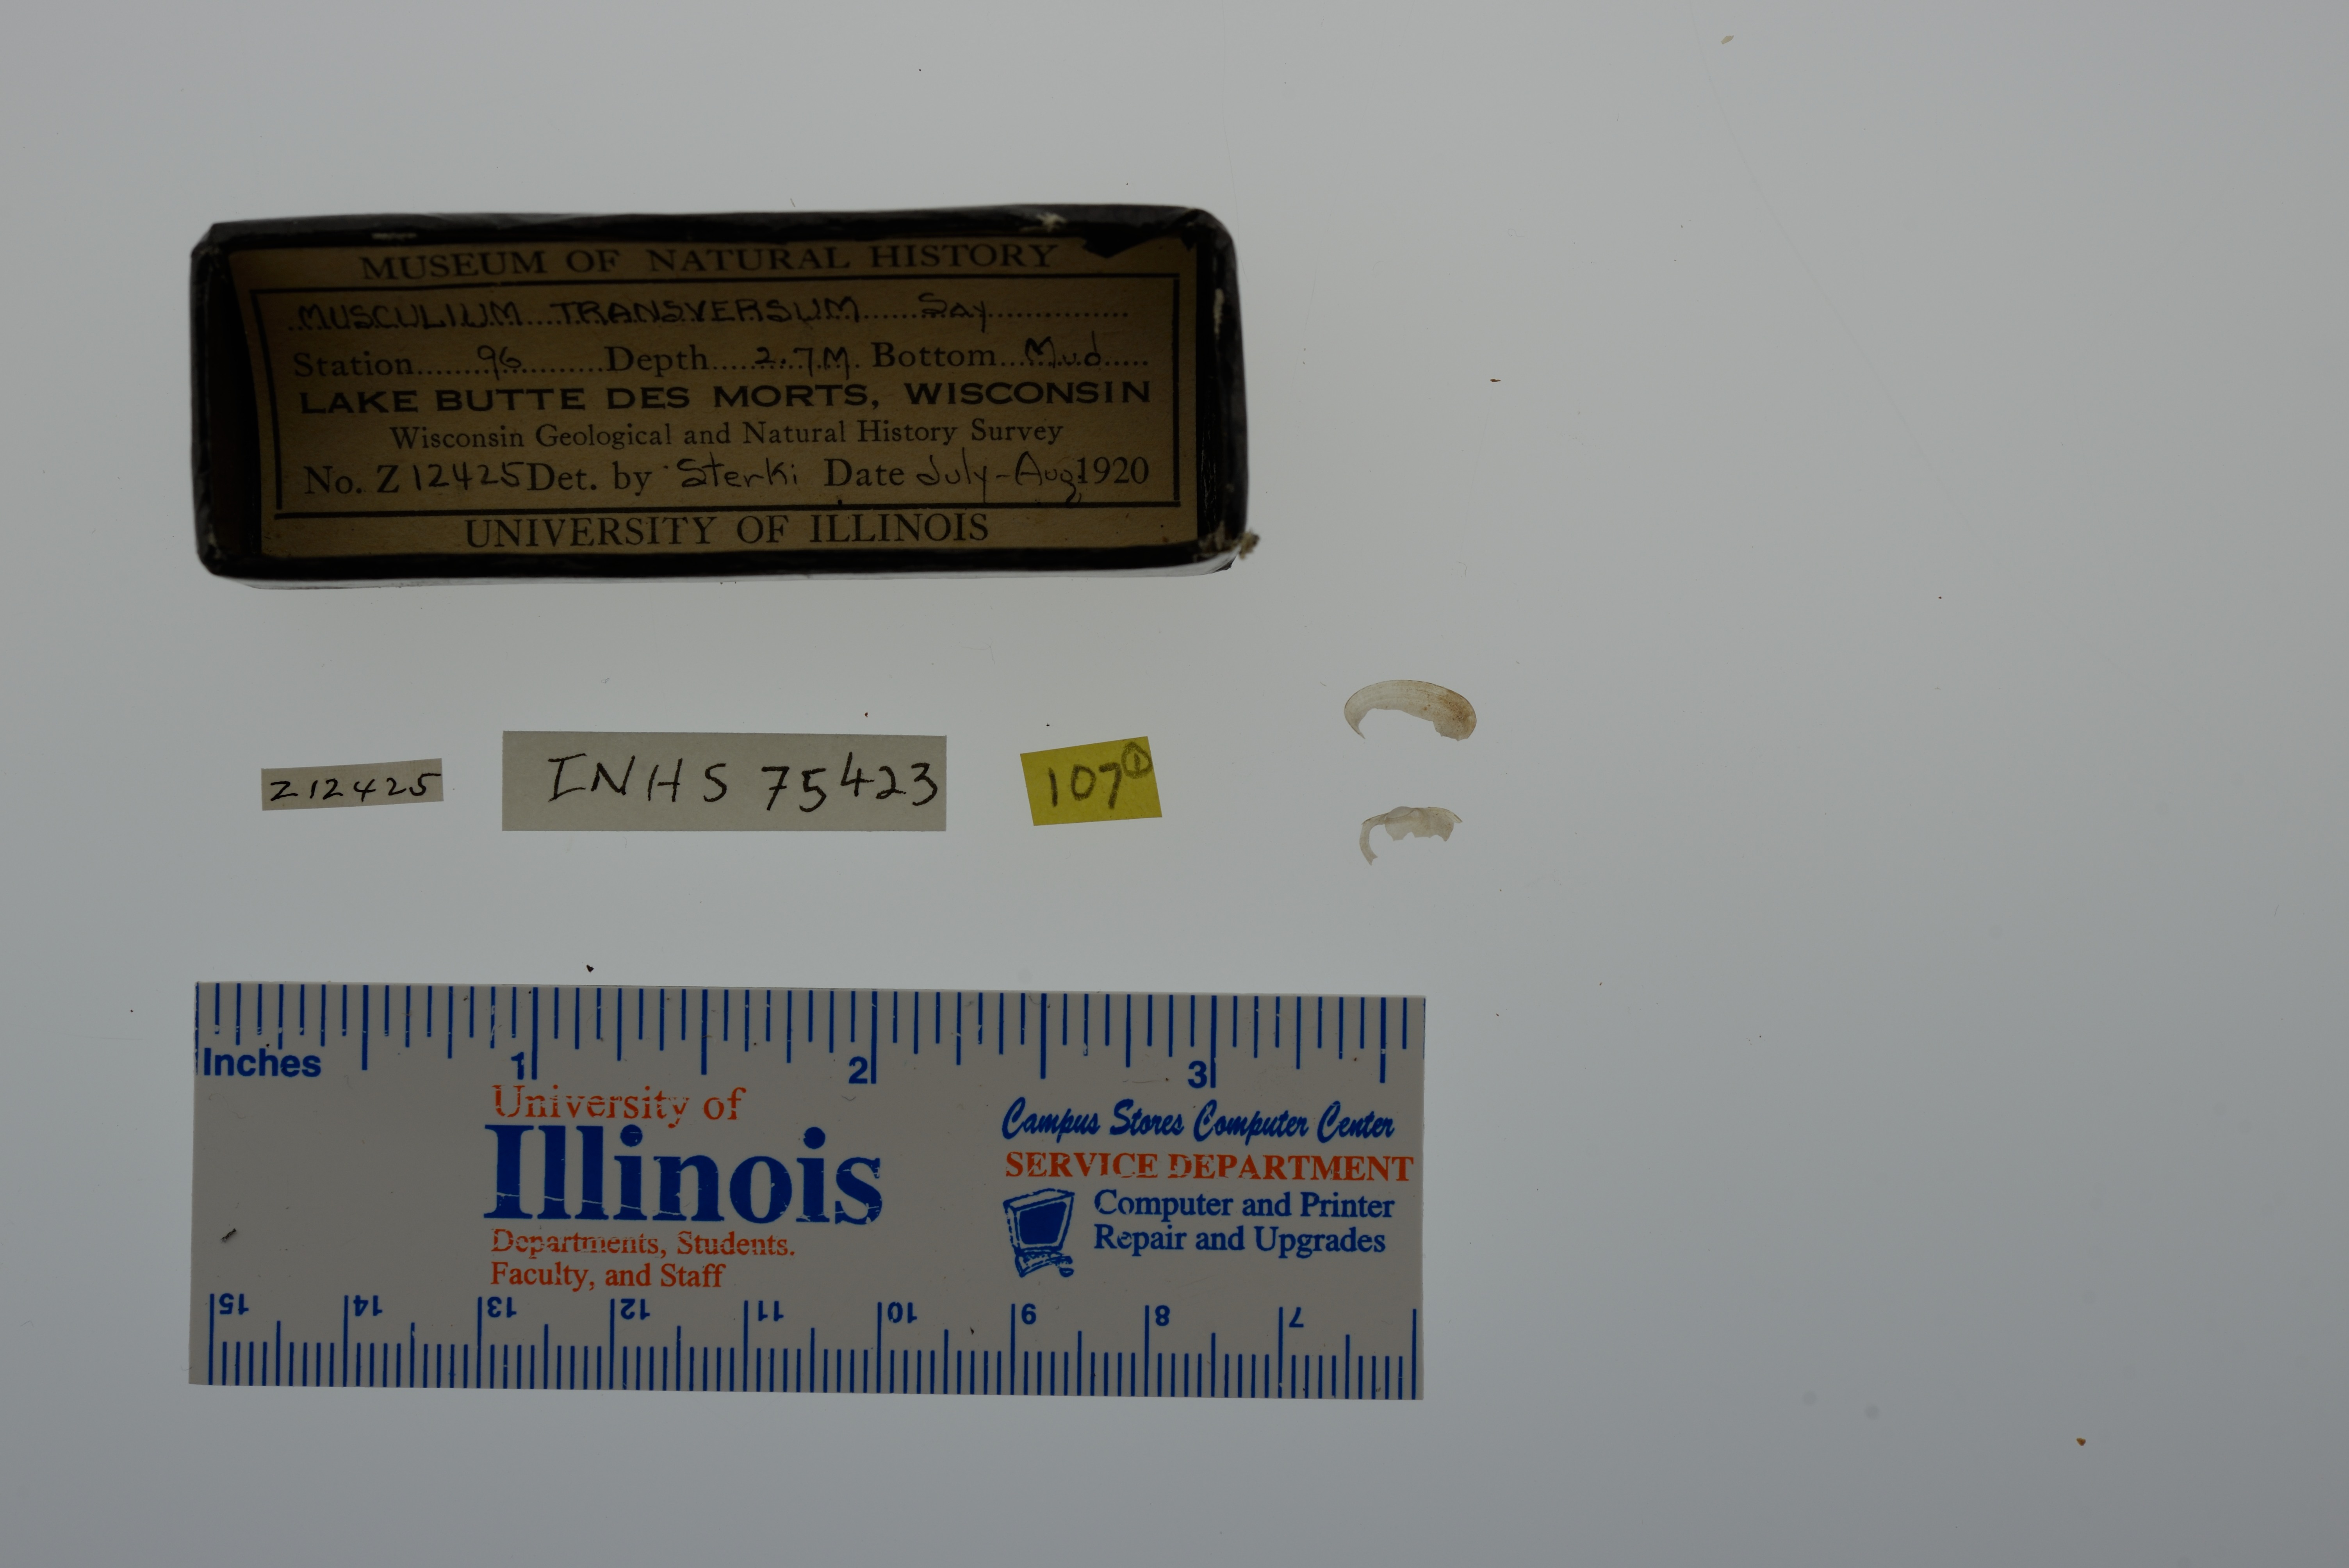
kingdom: Animalia
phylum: Mollusca
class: Bivalvia
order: Sphaeriida
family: Sphaeriidae
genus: Musculium
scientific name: Musculium transversum
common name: Oblong orb mussel
